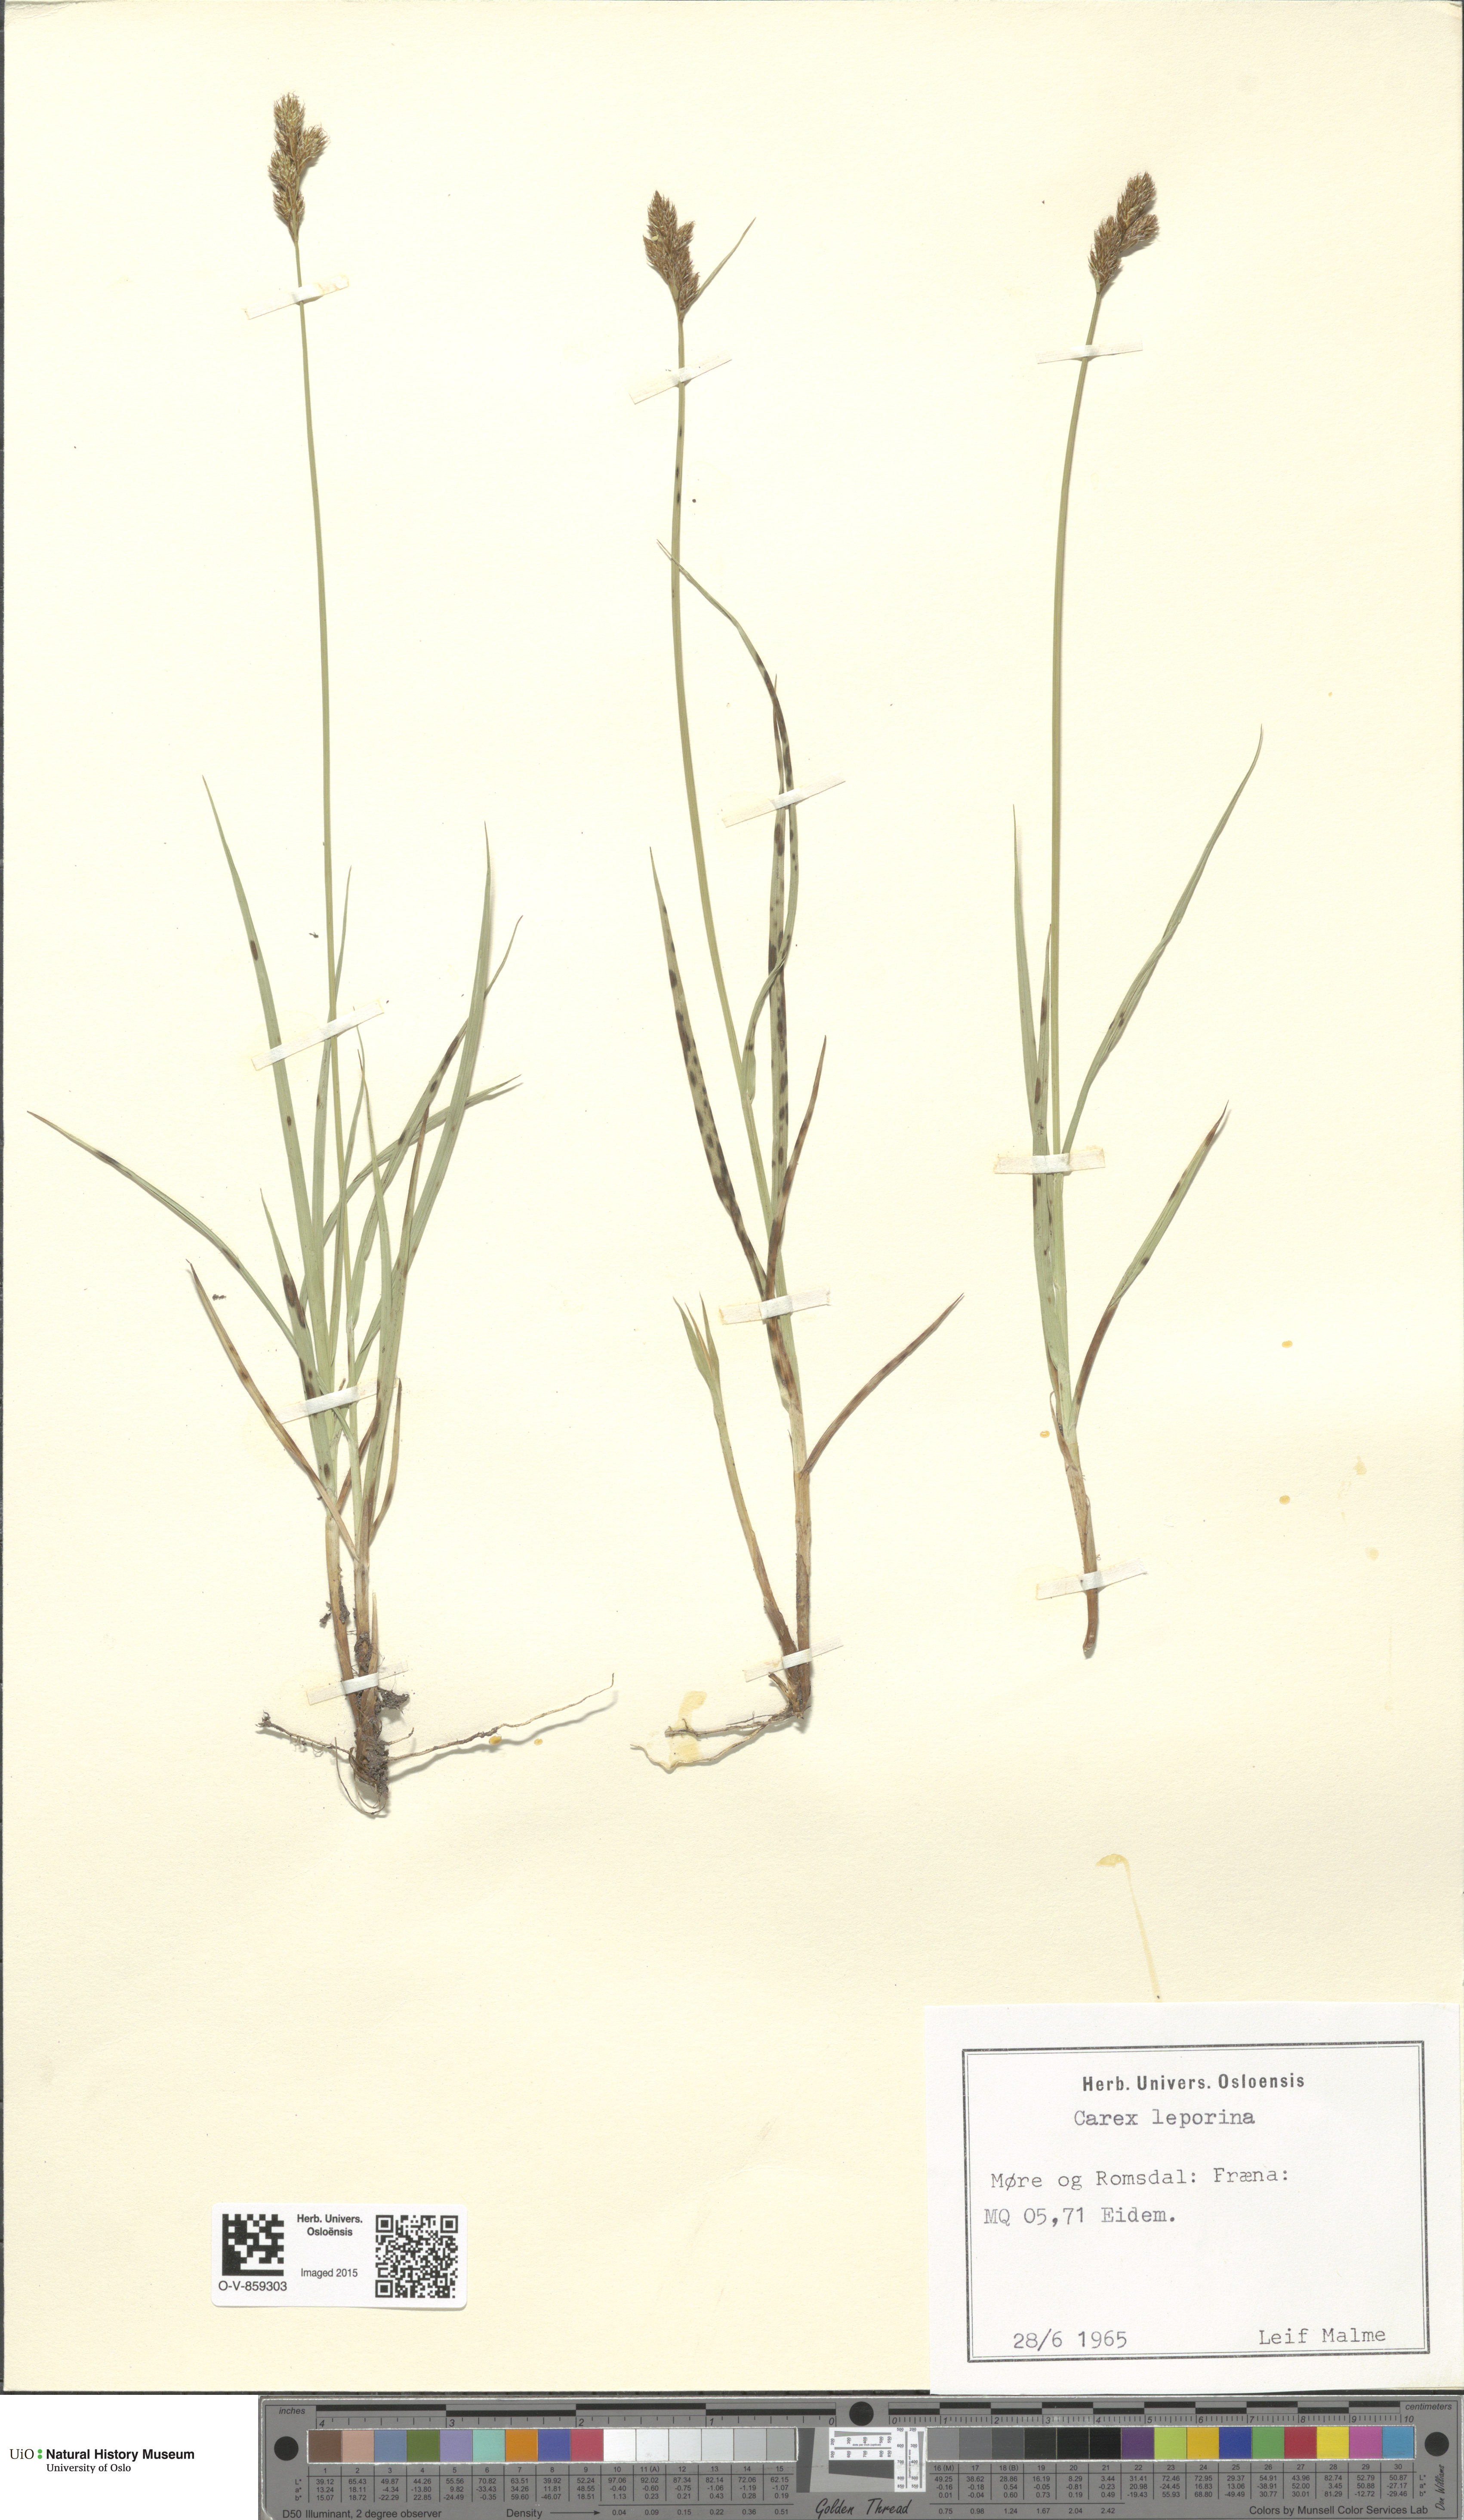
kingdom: Plantae
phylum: Tracheophyta
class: Liliopsida
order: Poales
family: Cyperaceae
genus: Carex
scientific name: Carex leporina
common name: Oval sedge
